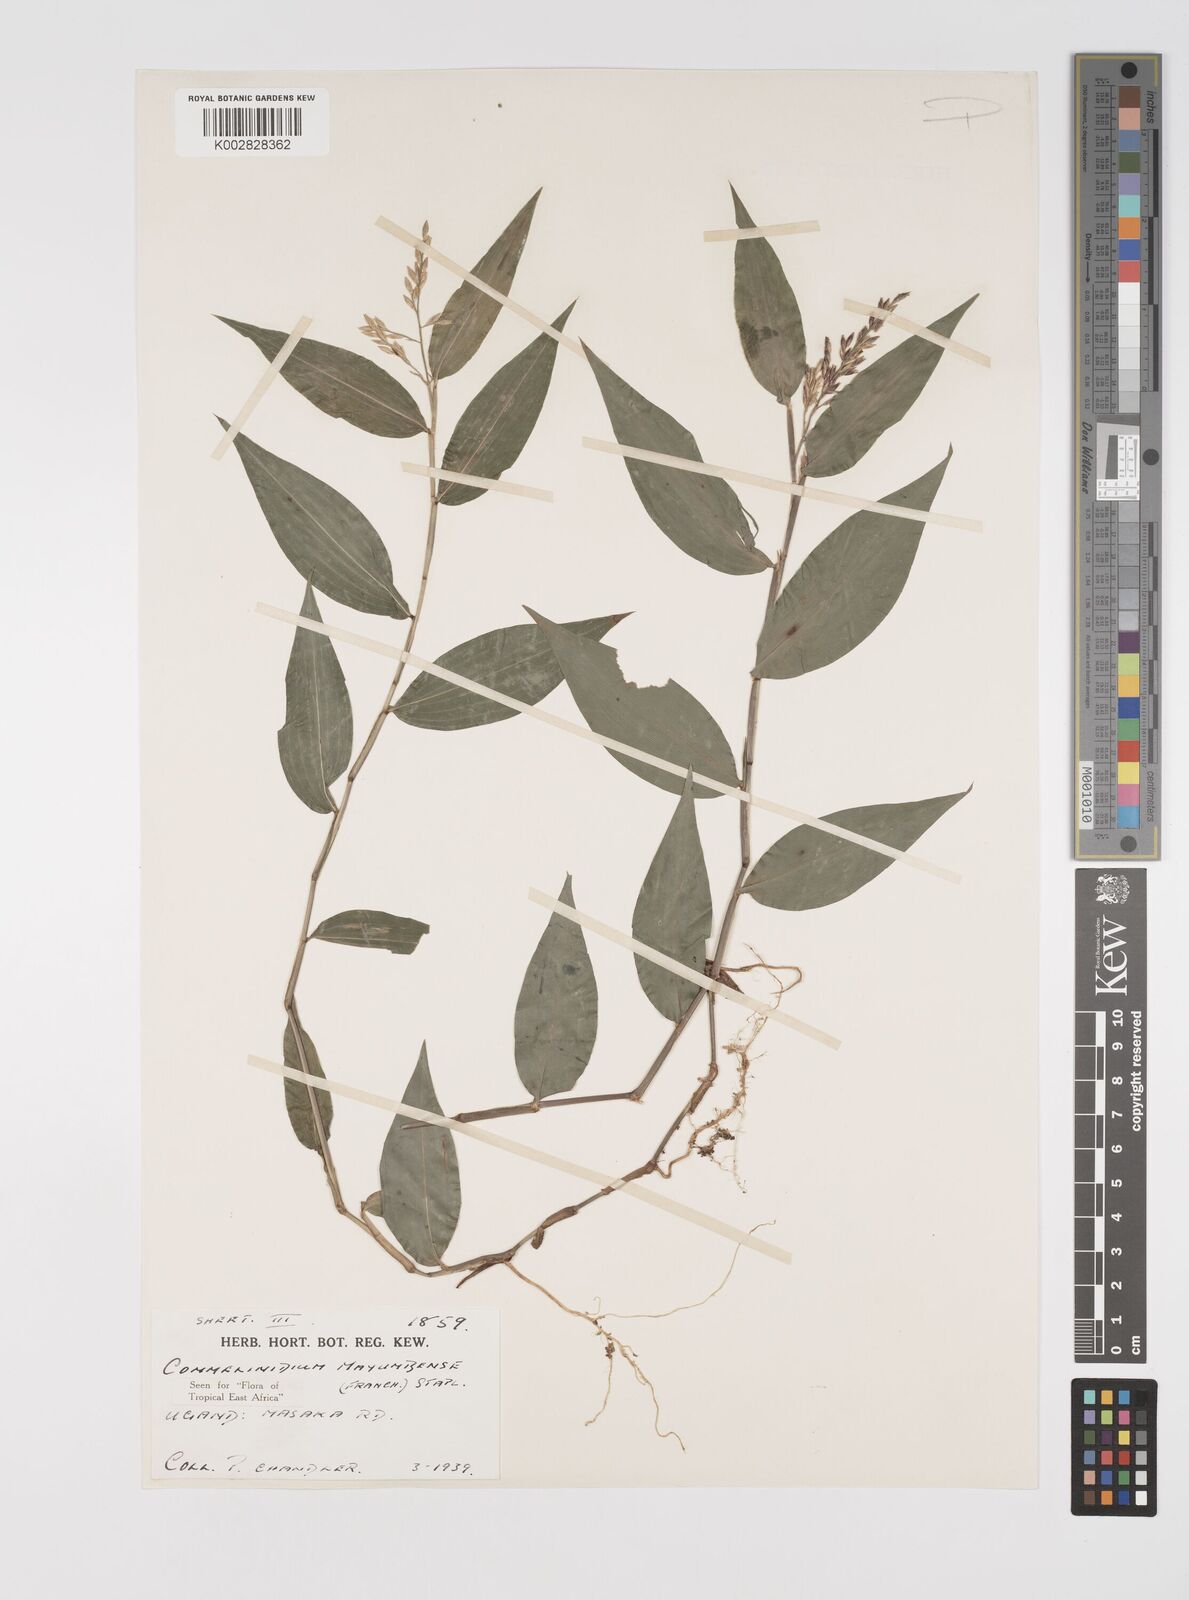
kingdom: Plantae
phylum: Tracheophyta
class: Liliopsida
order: Poales
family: Poaceae
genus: Acroceras
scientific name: Acroceras gabunense
